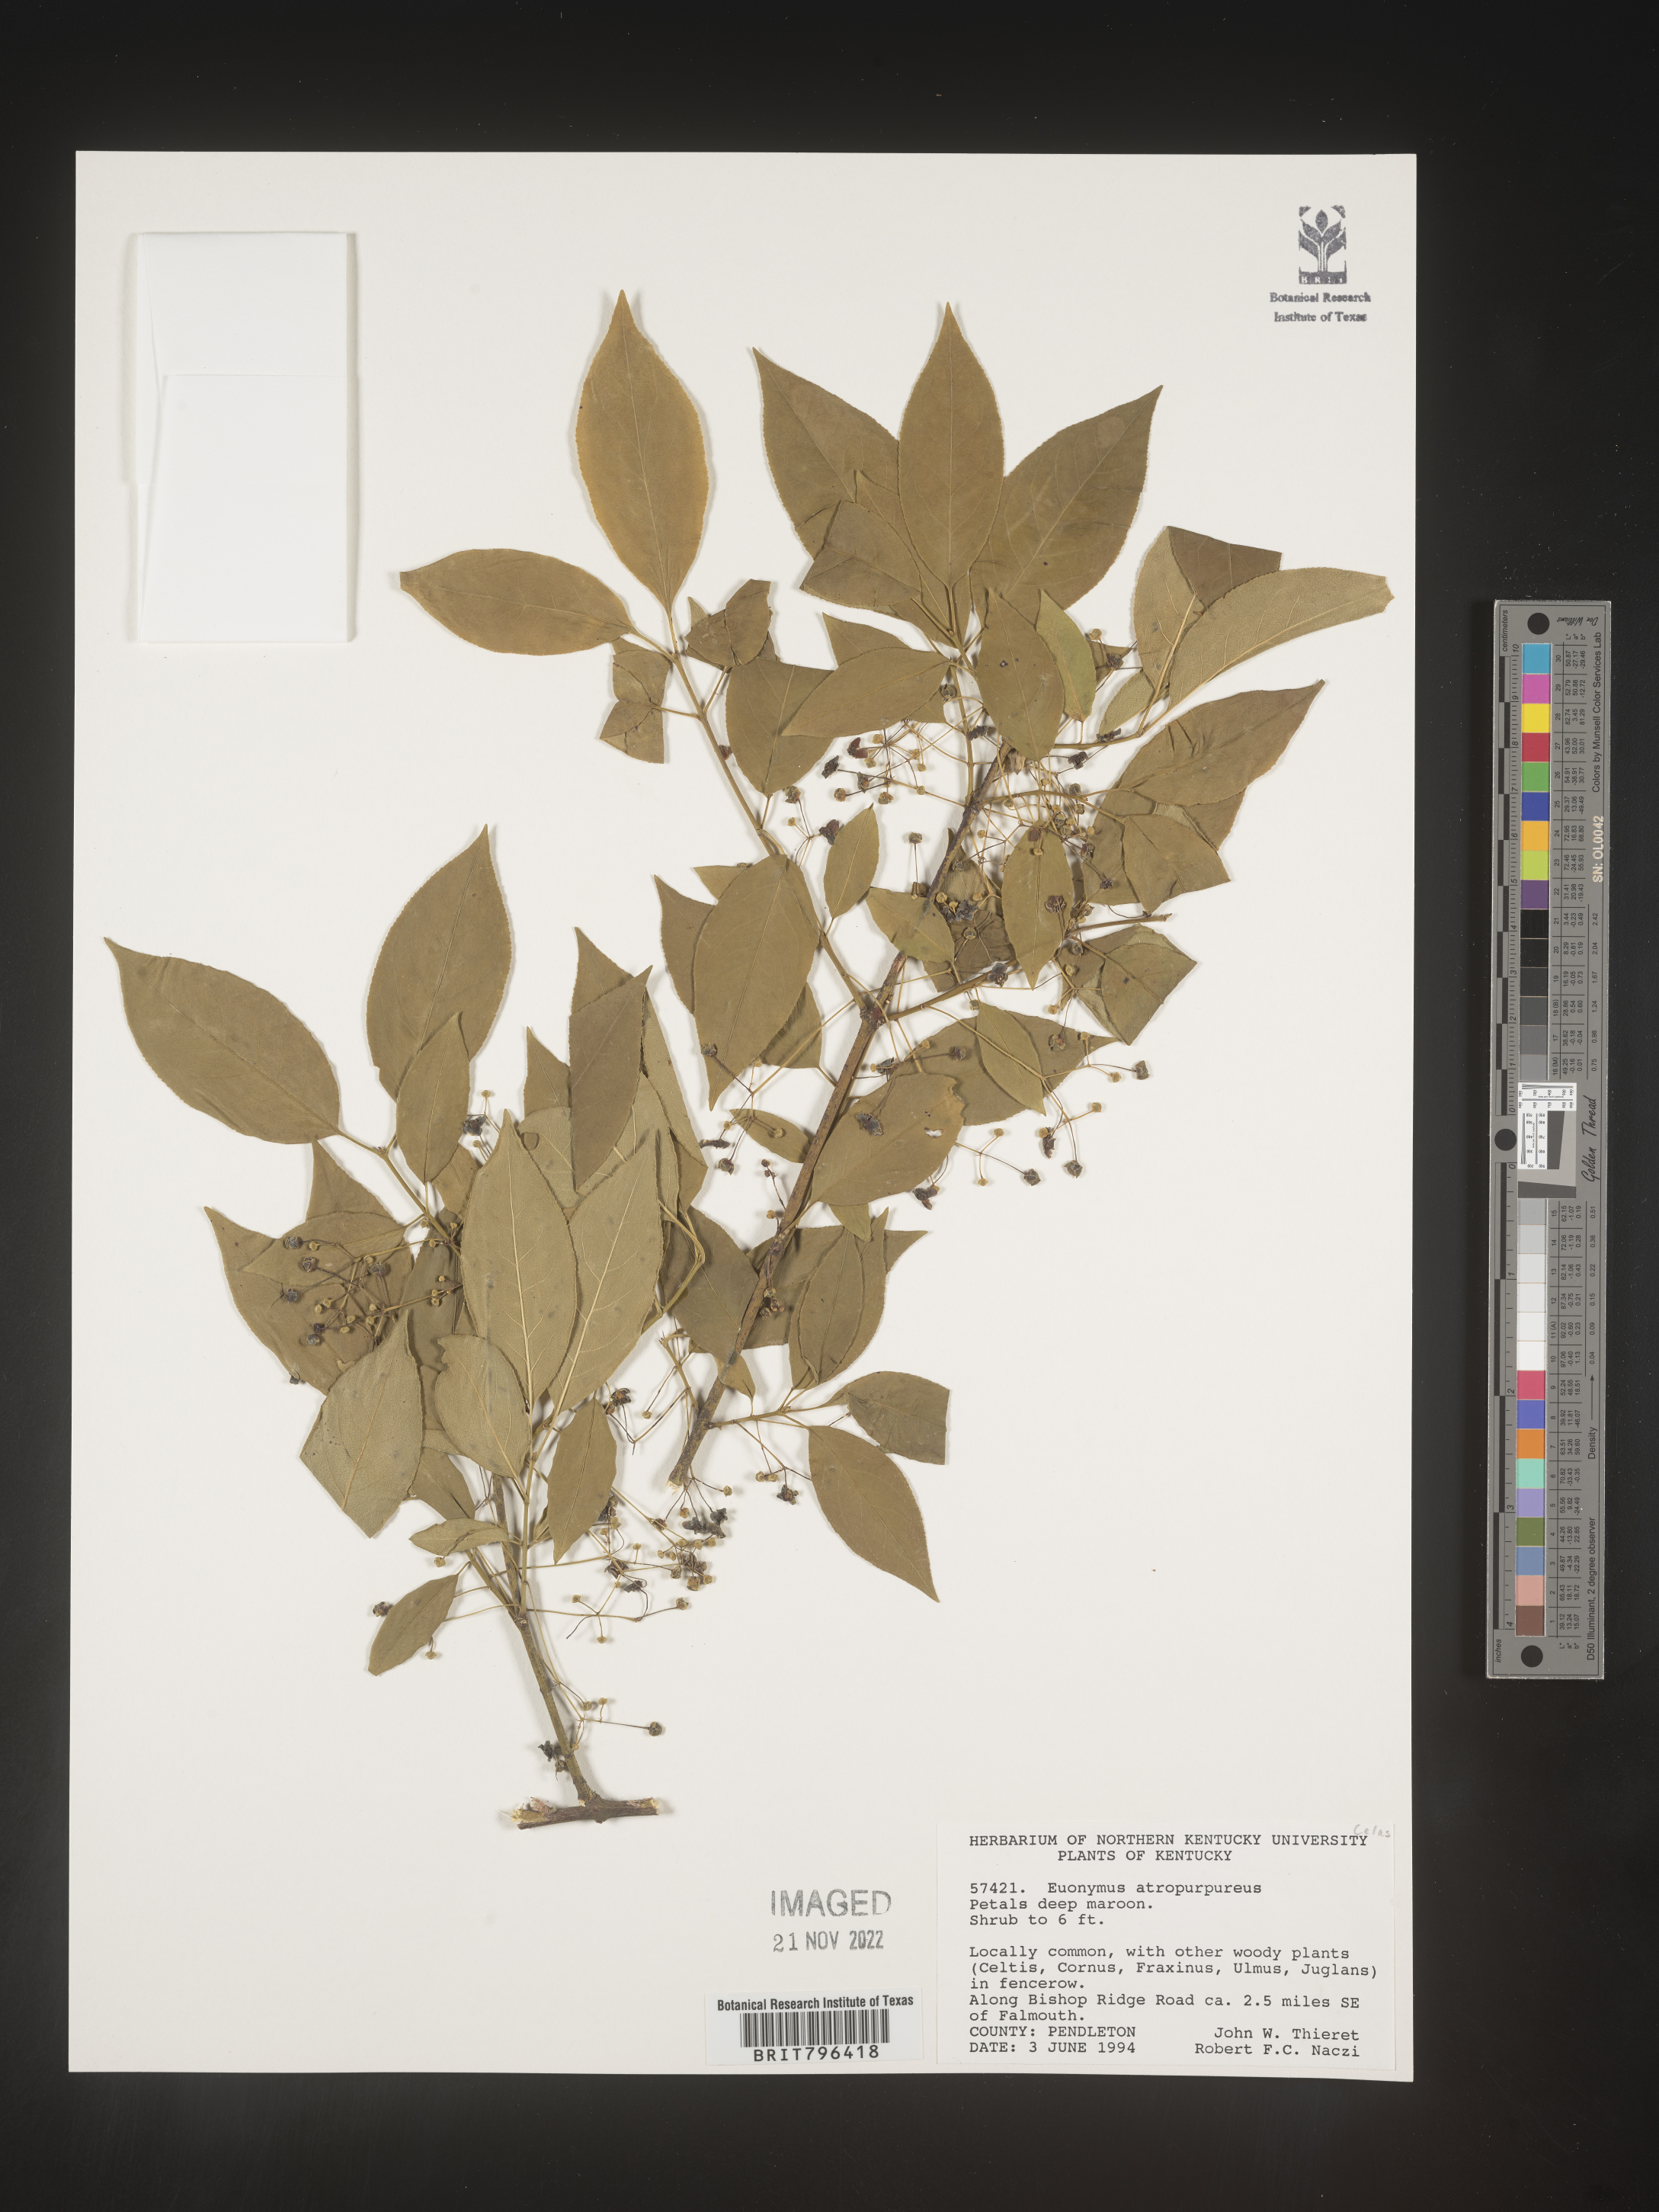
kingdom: Plantae
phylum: Tracheophyta
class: Magnoliopsida
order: Celastrales
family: Celastraceae
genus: Euonymus
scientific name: Euonymus atropurpureus
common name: Eastern wahoo
